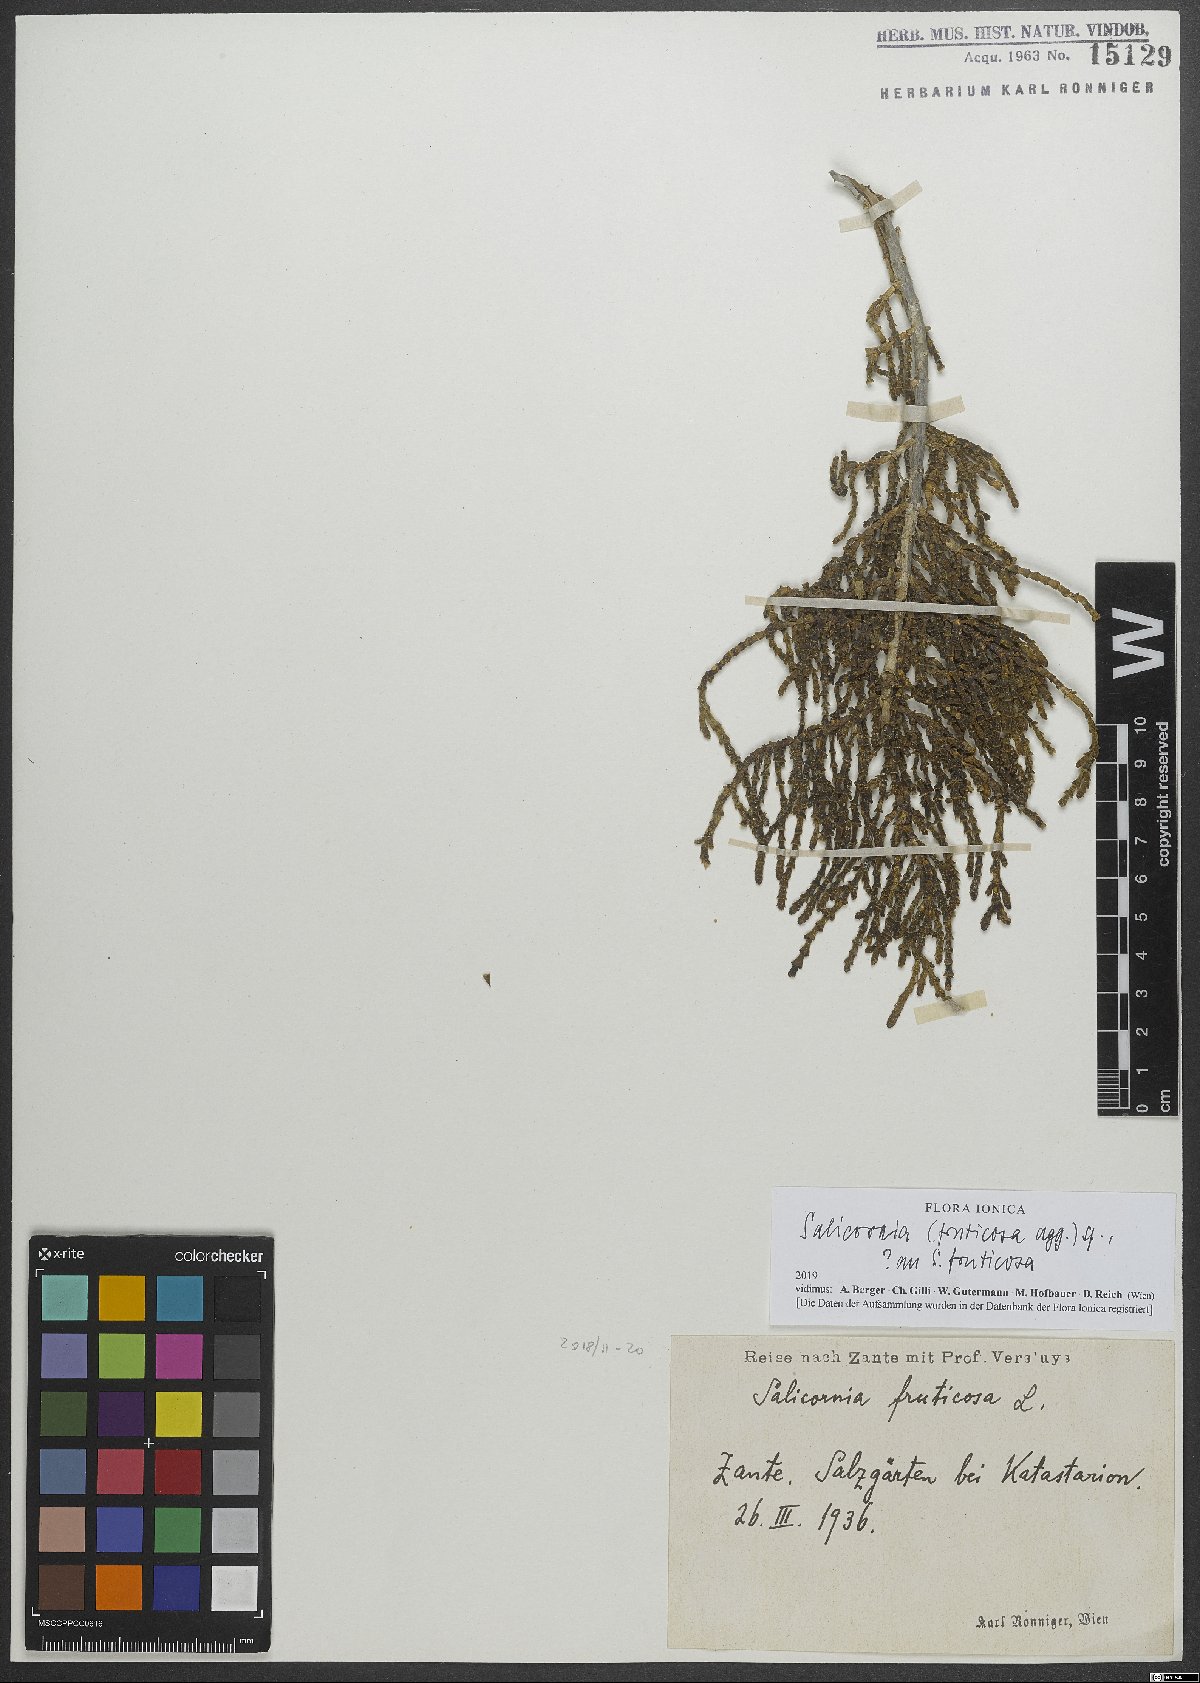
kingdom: Plantae
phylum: Tracheophyta
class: Magnoliopsida
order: Caryophyllales
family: Amaranthaceae
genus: Salicornia
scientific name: Salicornia fruticosa
